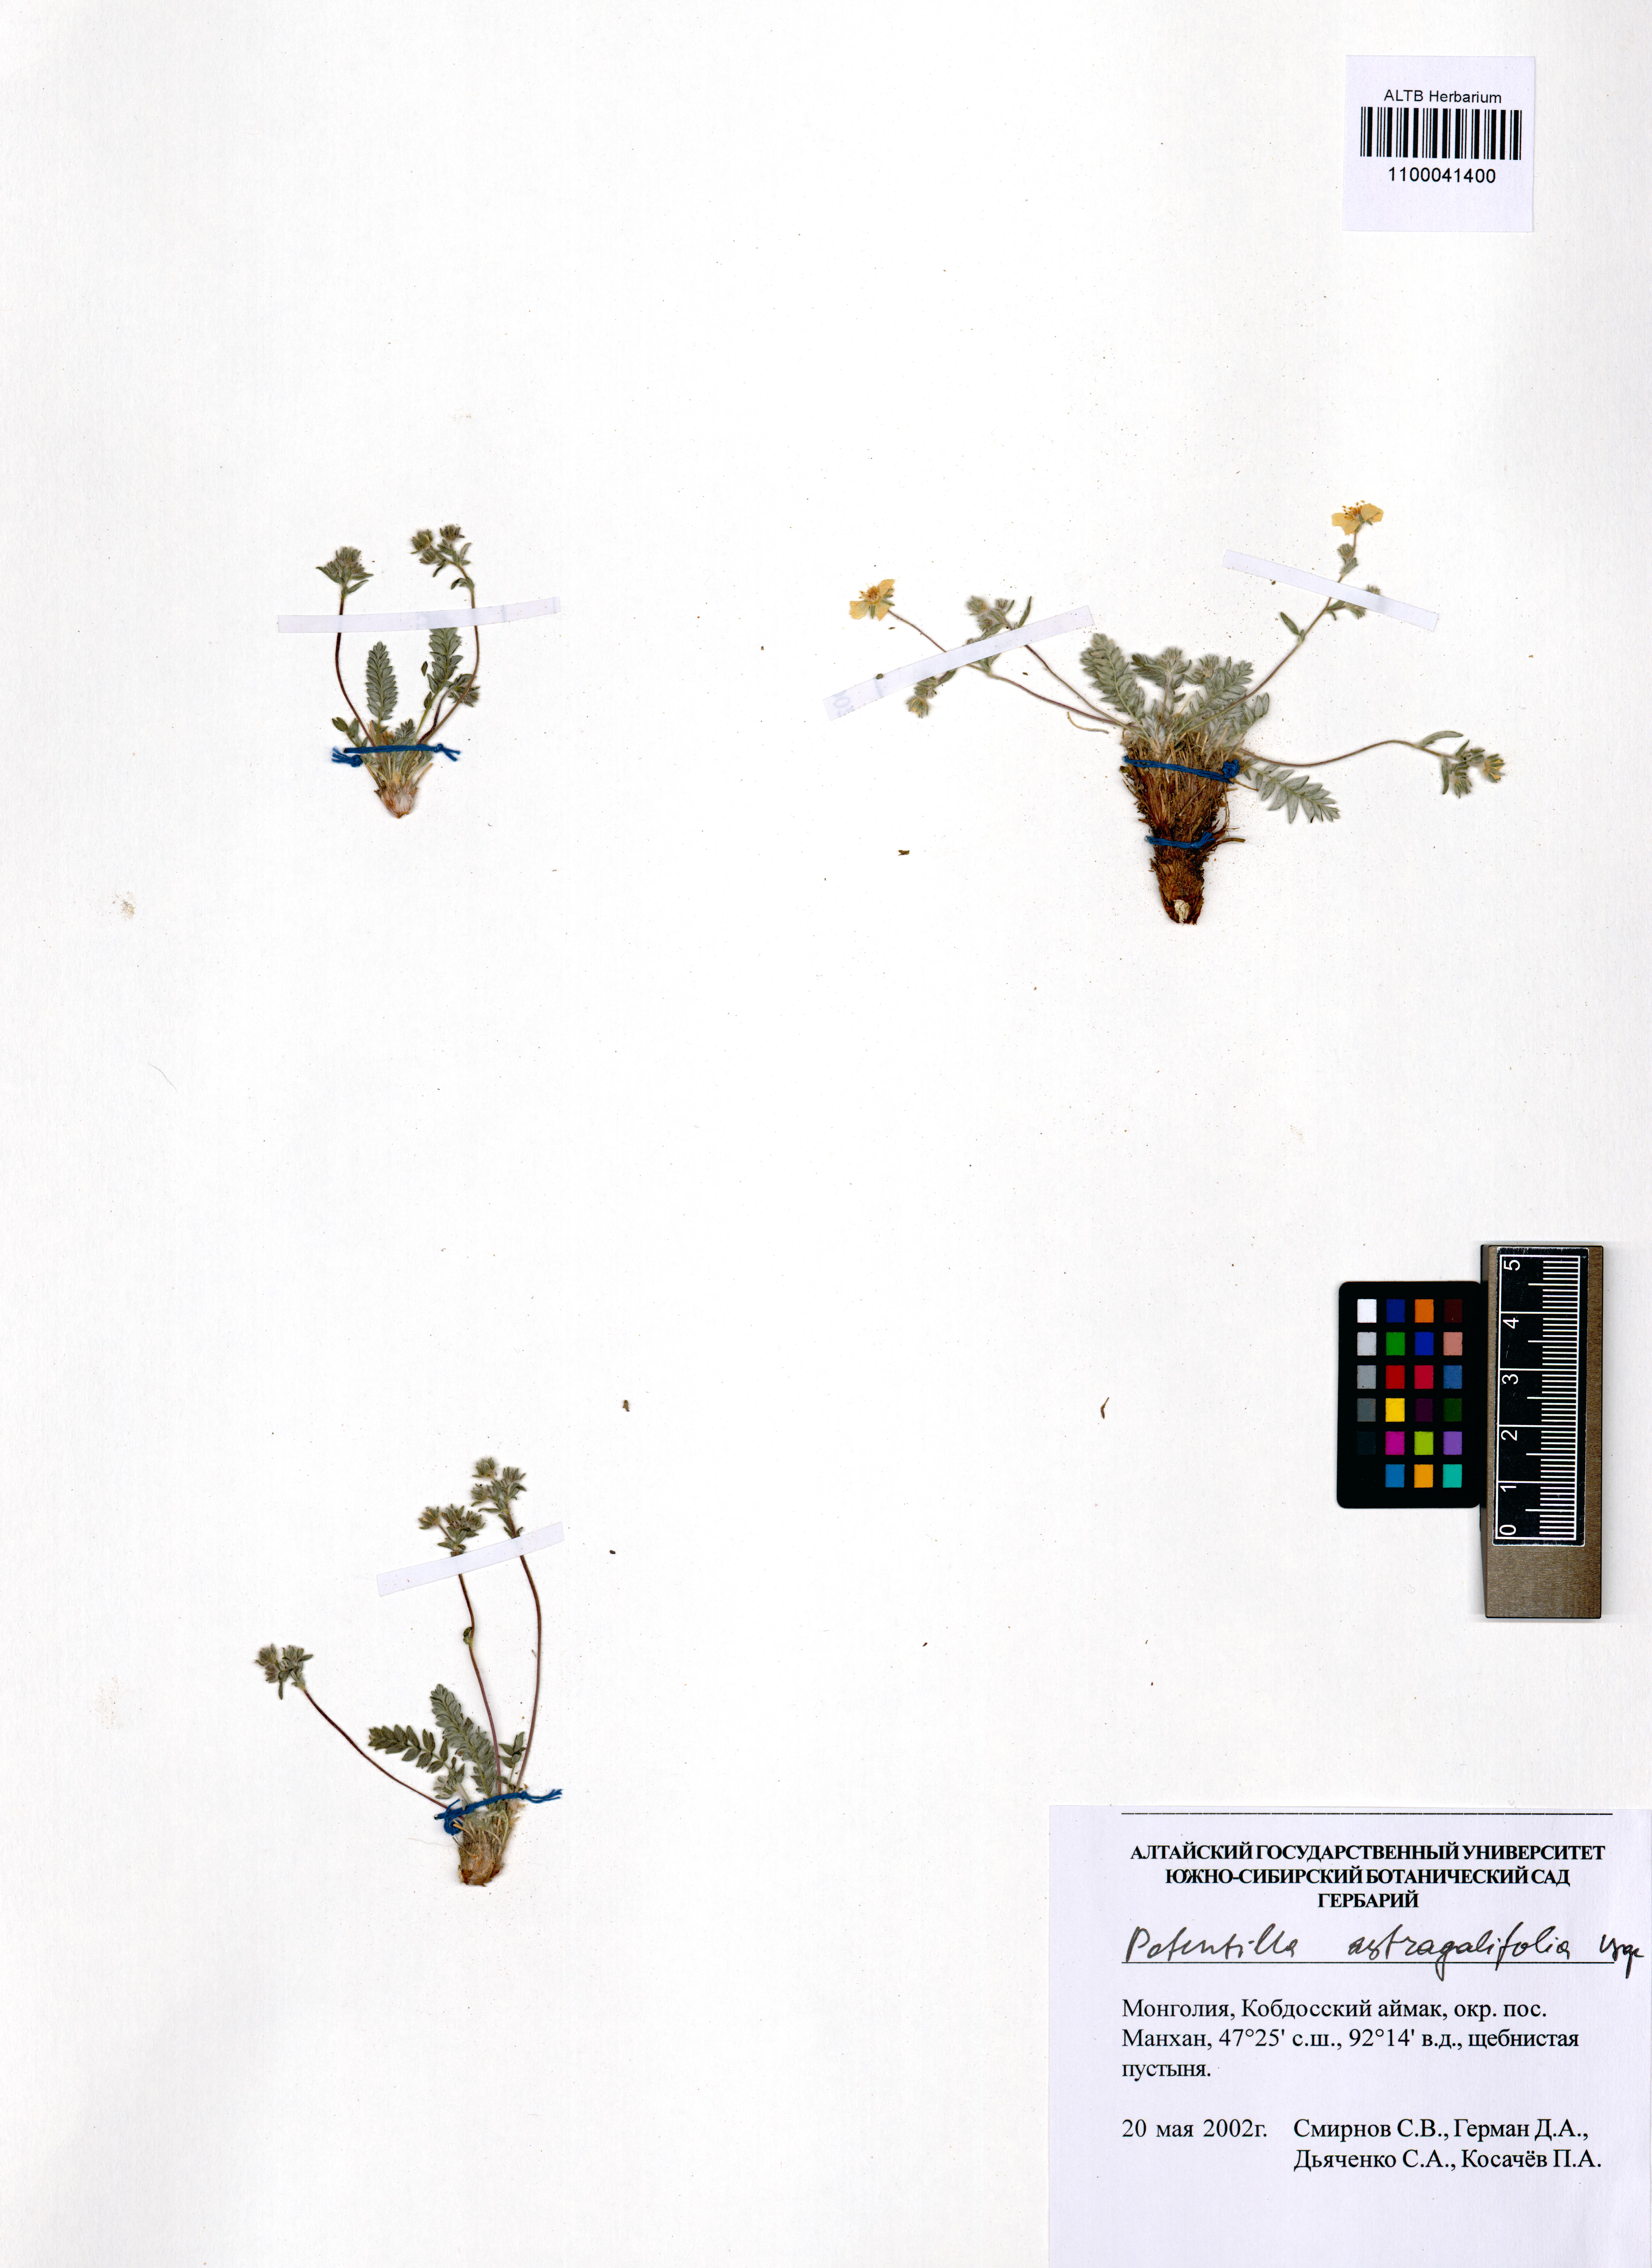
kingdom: Plantae
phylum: Tracheophyta
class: Magnoliopsida
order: Rosales
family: Rosaceae
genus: Potentilla
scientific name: Potentilla astragalifolia
